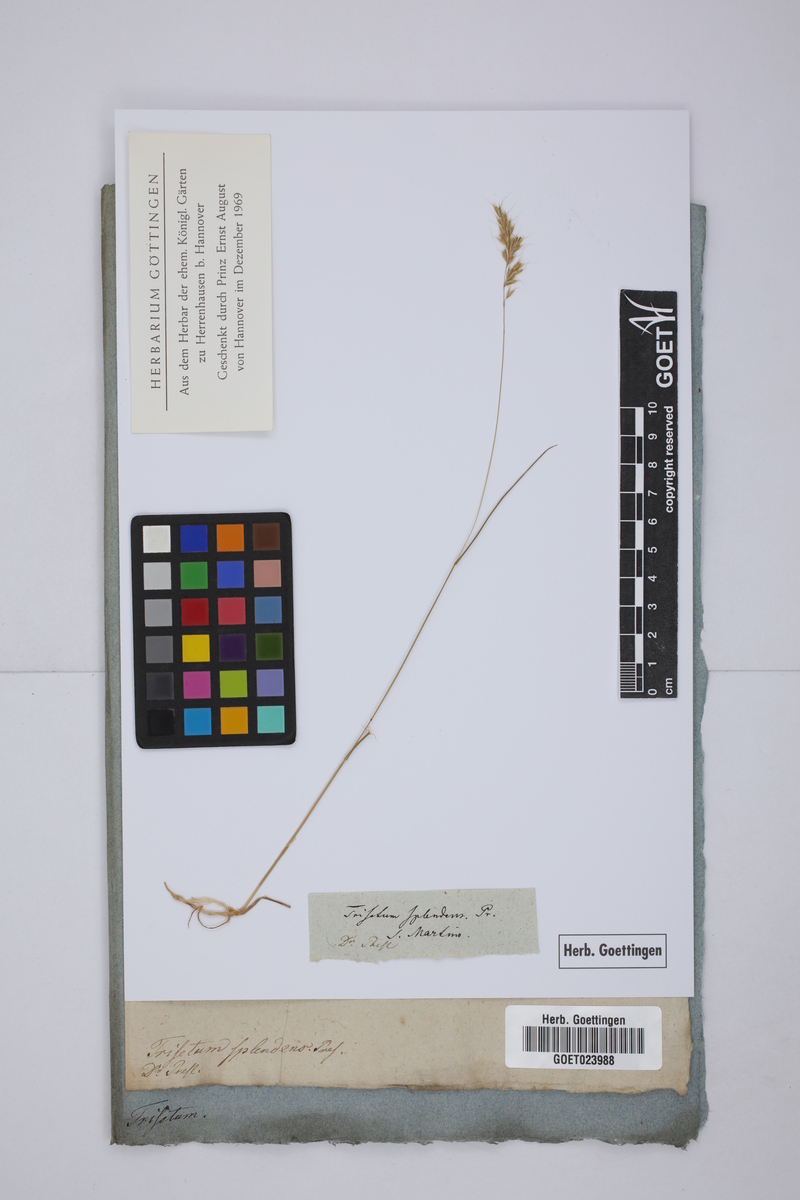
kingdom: Plantae
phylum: Tracheophyta
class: Liliopsida
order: Poales
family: Poaceae
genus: Trisetum
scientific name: Trisetum flavescens
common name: Yellow oat-grass
